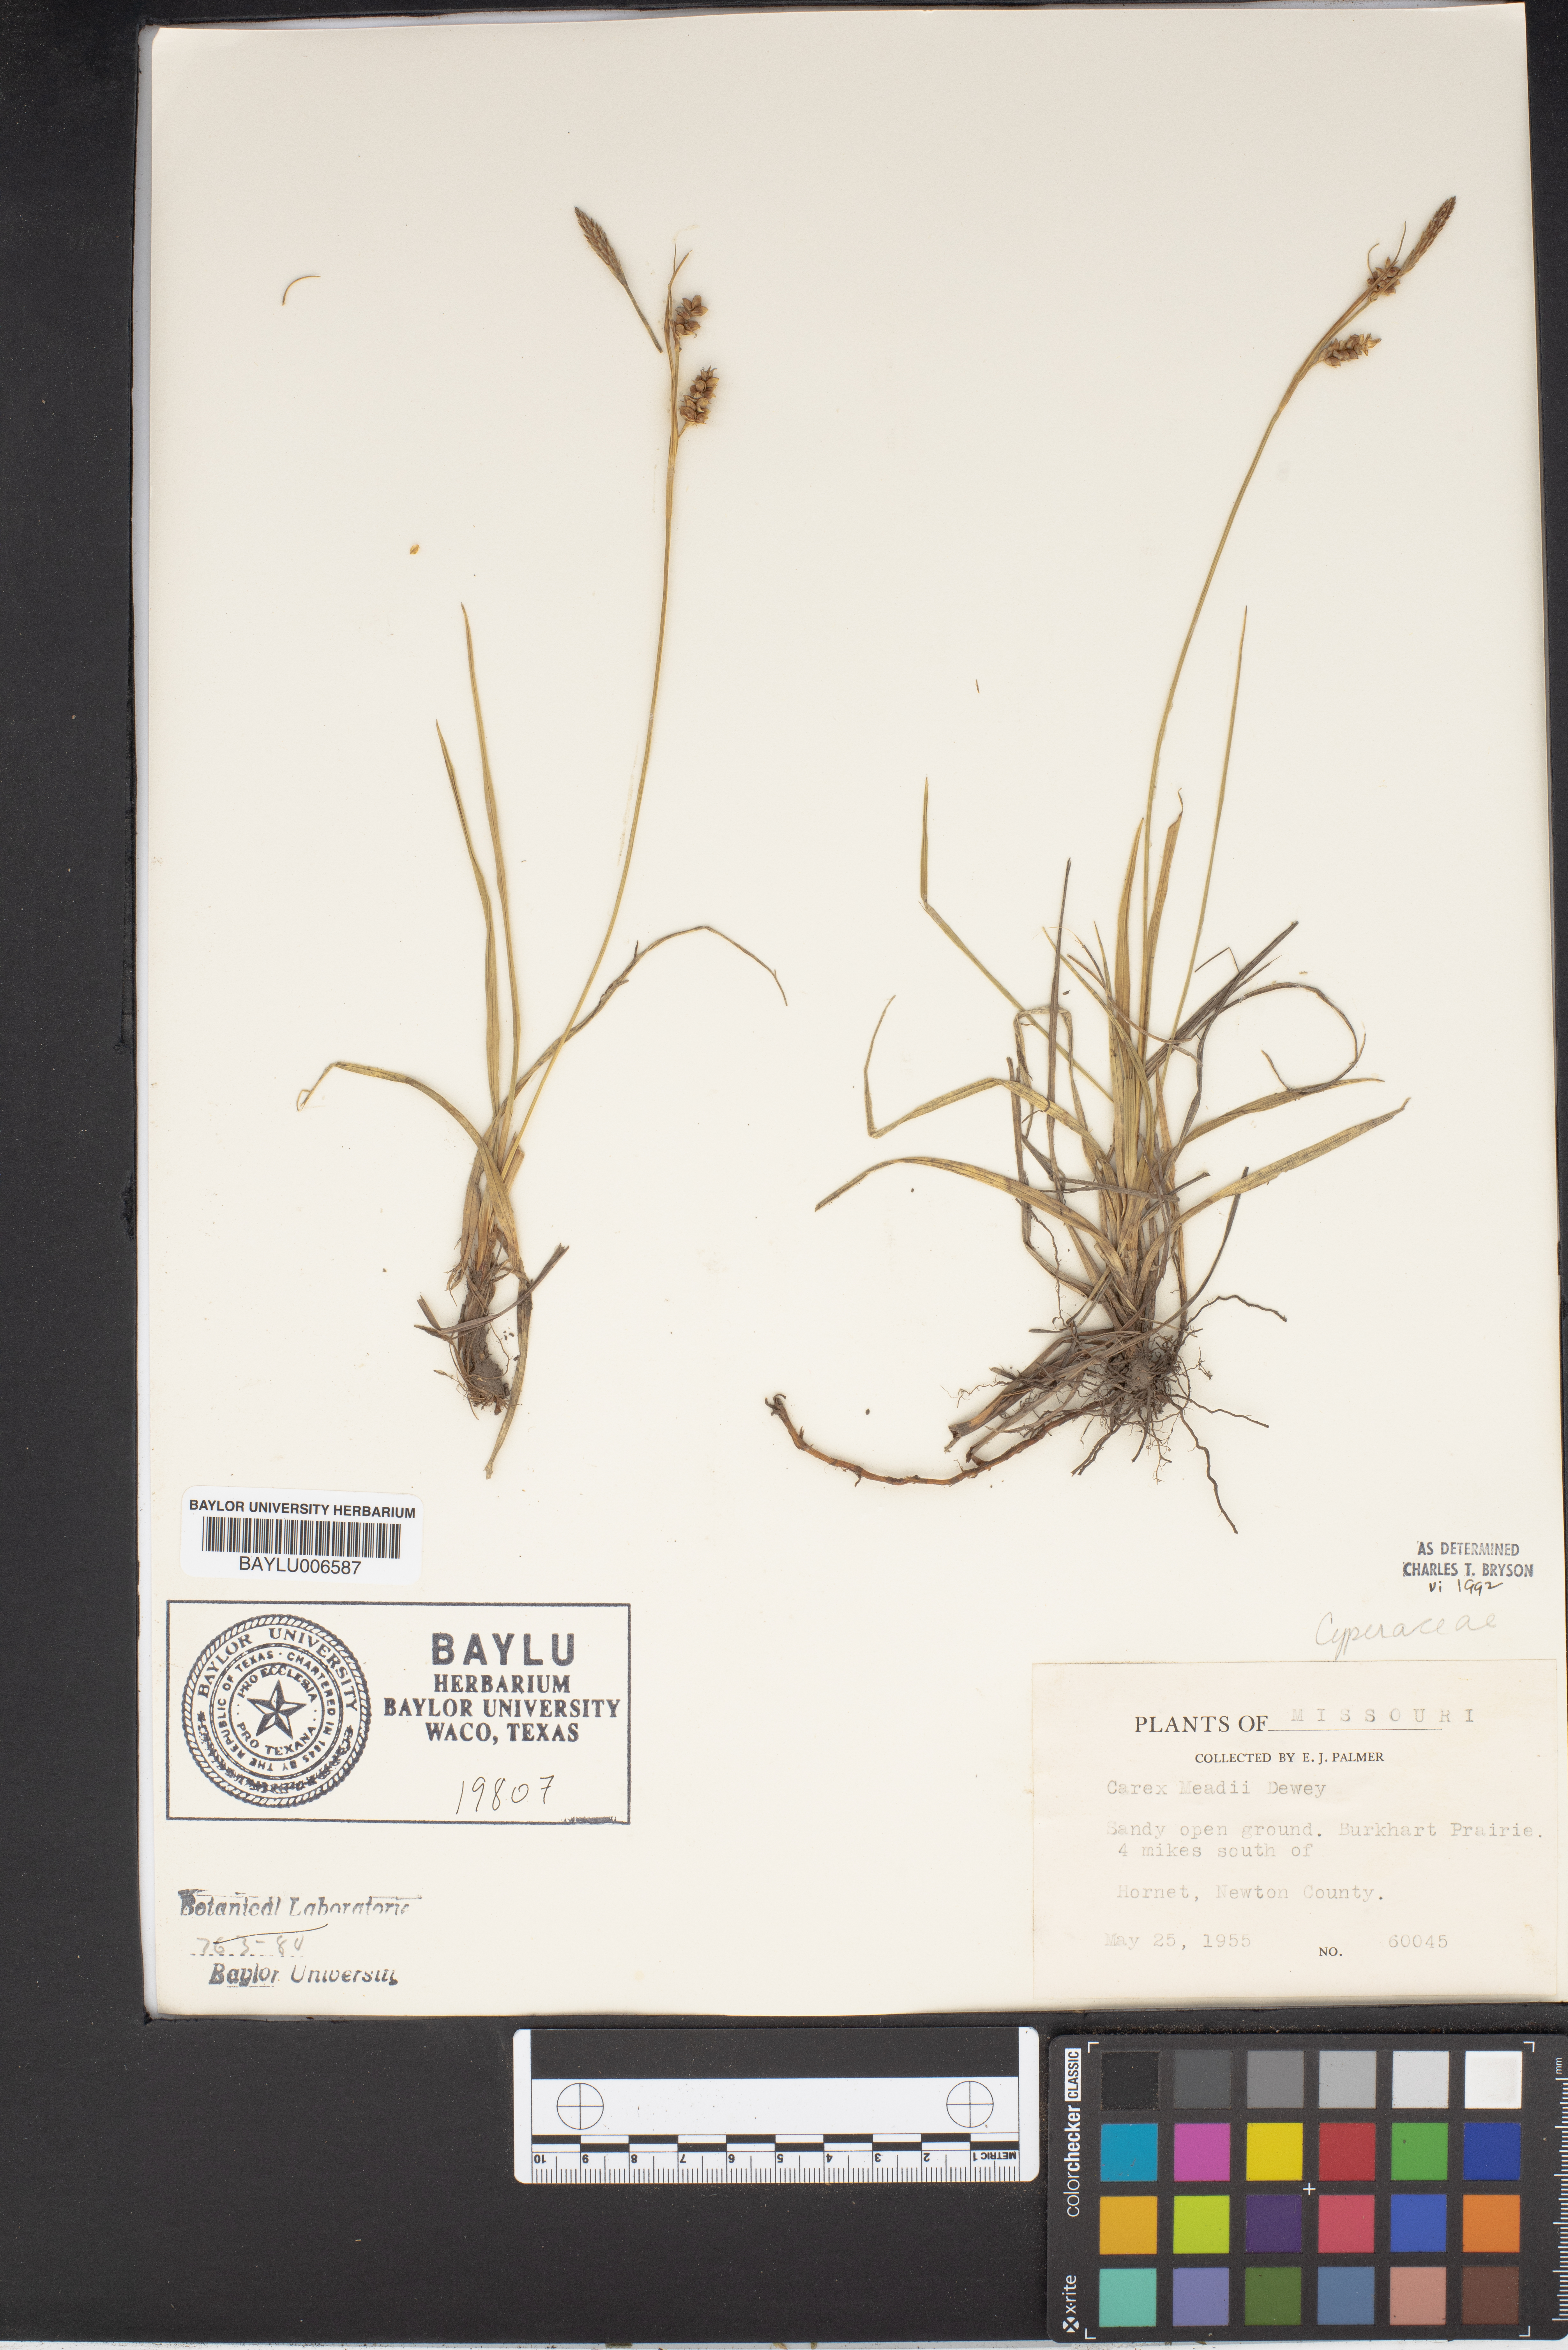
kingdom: Plantae
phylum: Tracheophyta
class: Liliopsida
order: Poales
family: Cyperaceae
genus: Carex
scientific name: Carex meadii
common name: Mead's sedge
